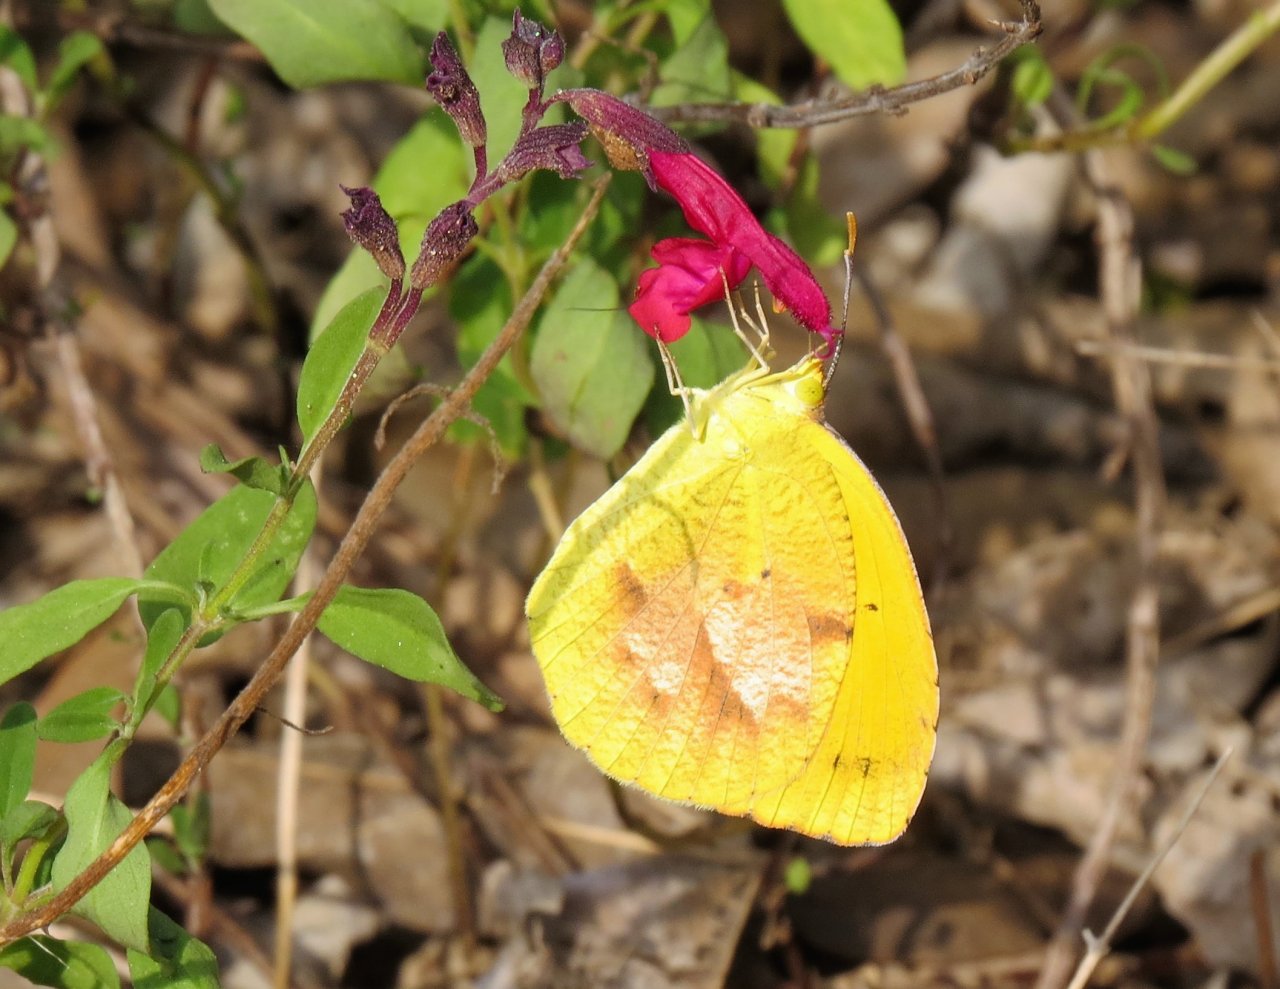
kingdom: Animalia
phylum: Arthropoda
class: Insecta
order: Lepidoptera
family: Pieridae
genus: Abaeis
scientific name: Abaeis nicippe
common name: Sleepy Orange
